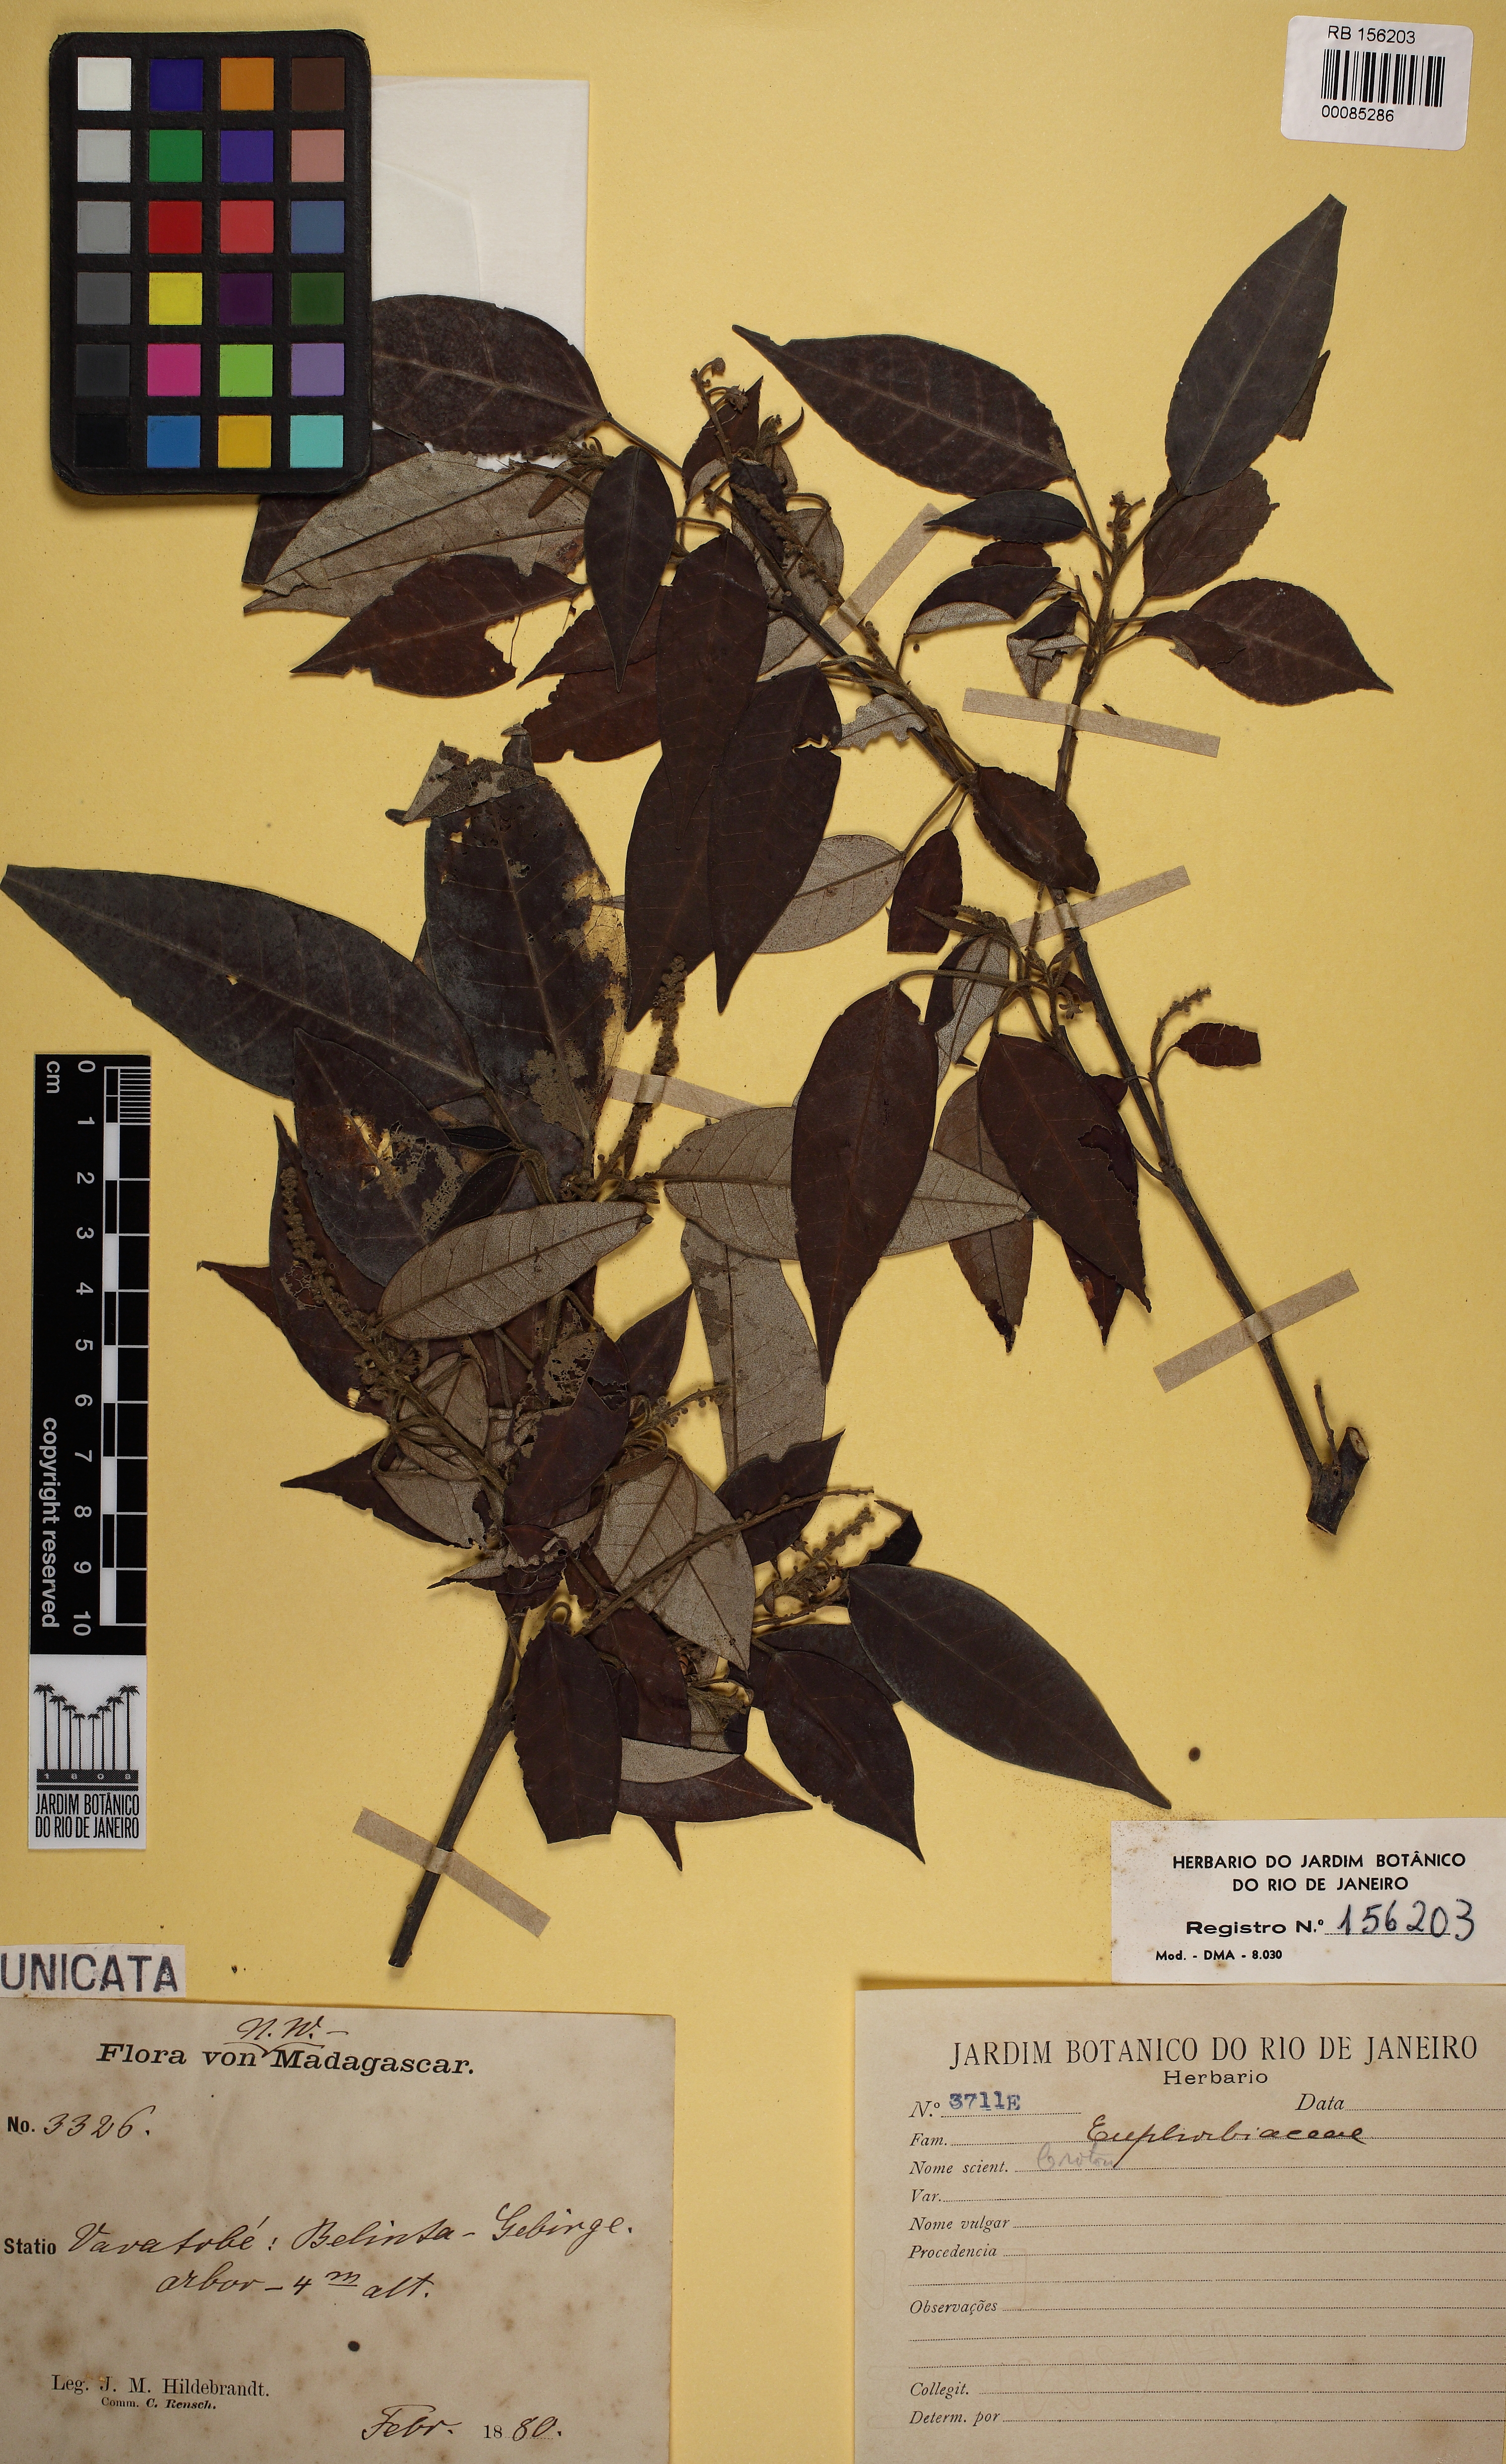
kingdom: Plantae
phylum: Tracheophyta
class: Magnoliopsida
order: Malpighiales
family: Euphorbiaceae
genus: Croton
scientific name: Croton
